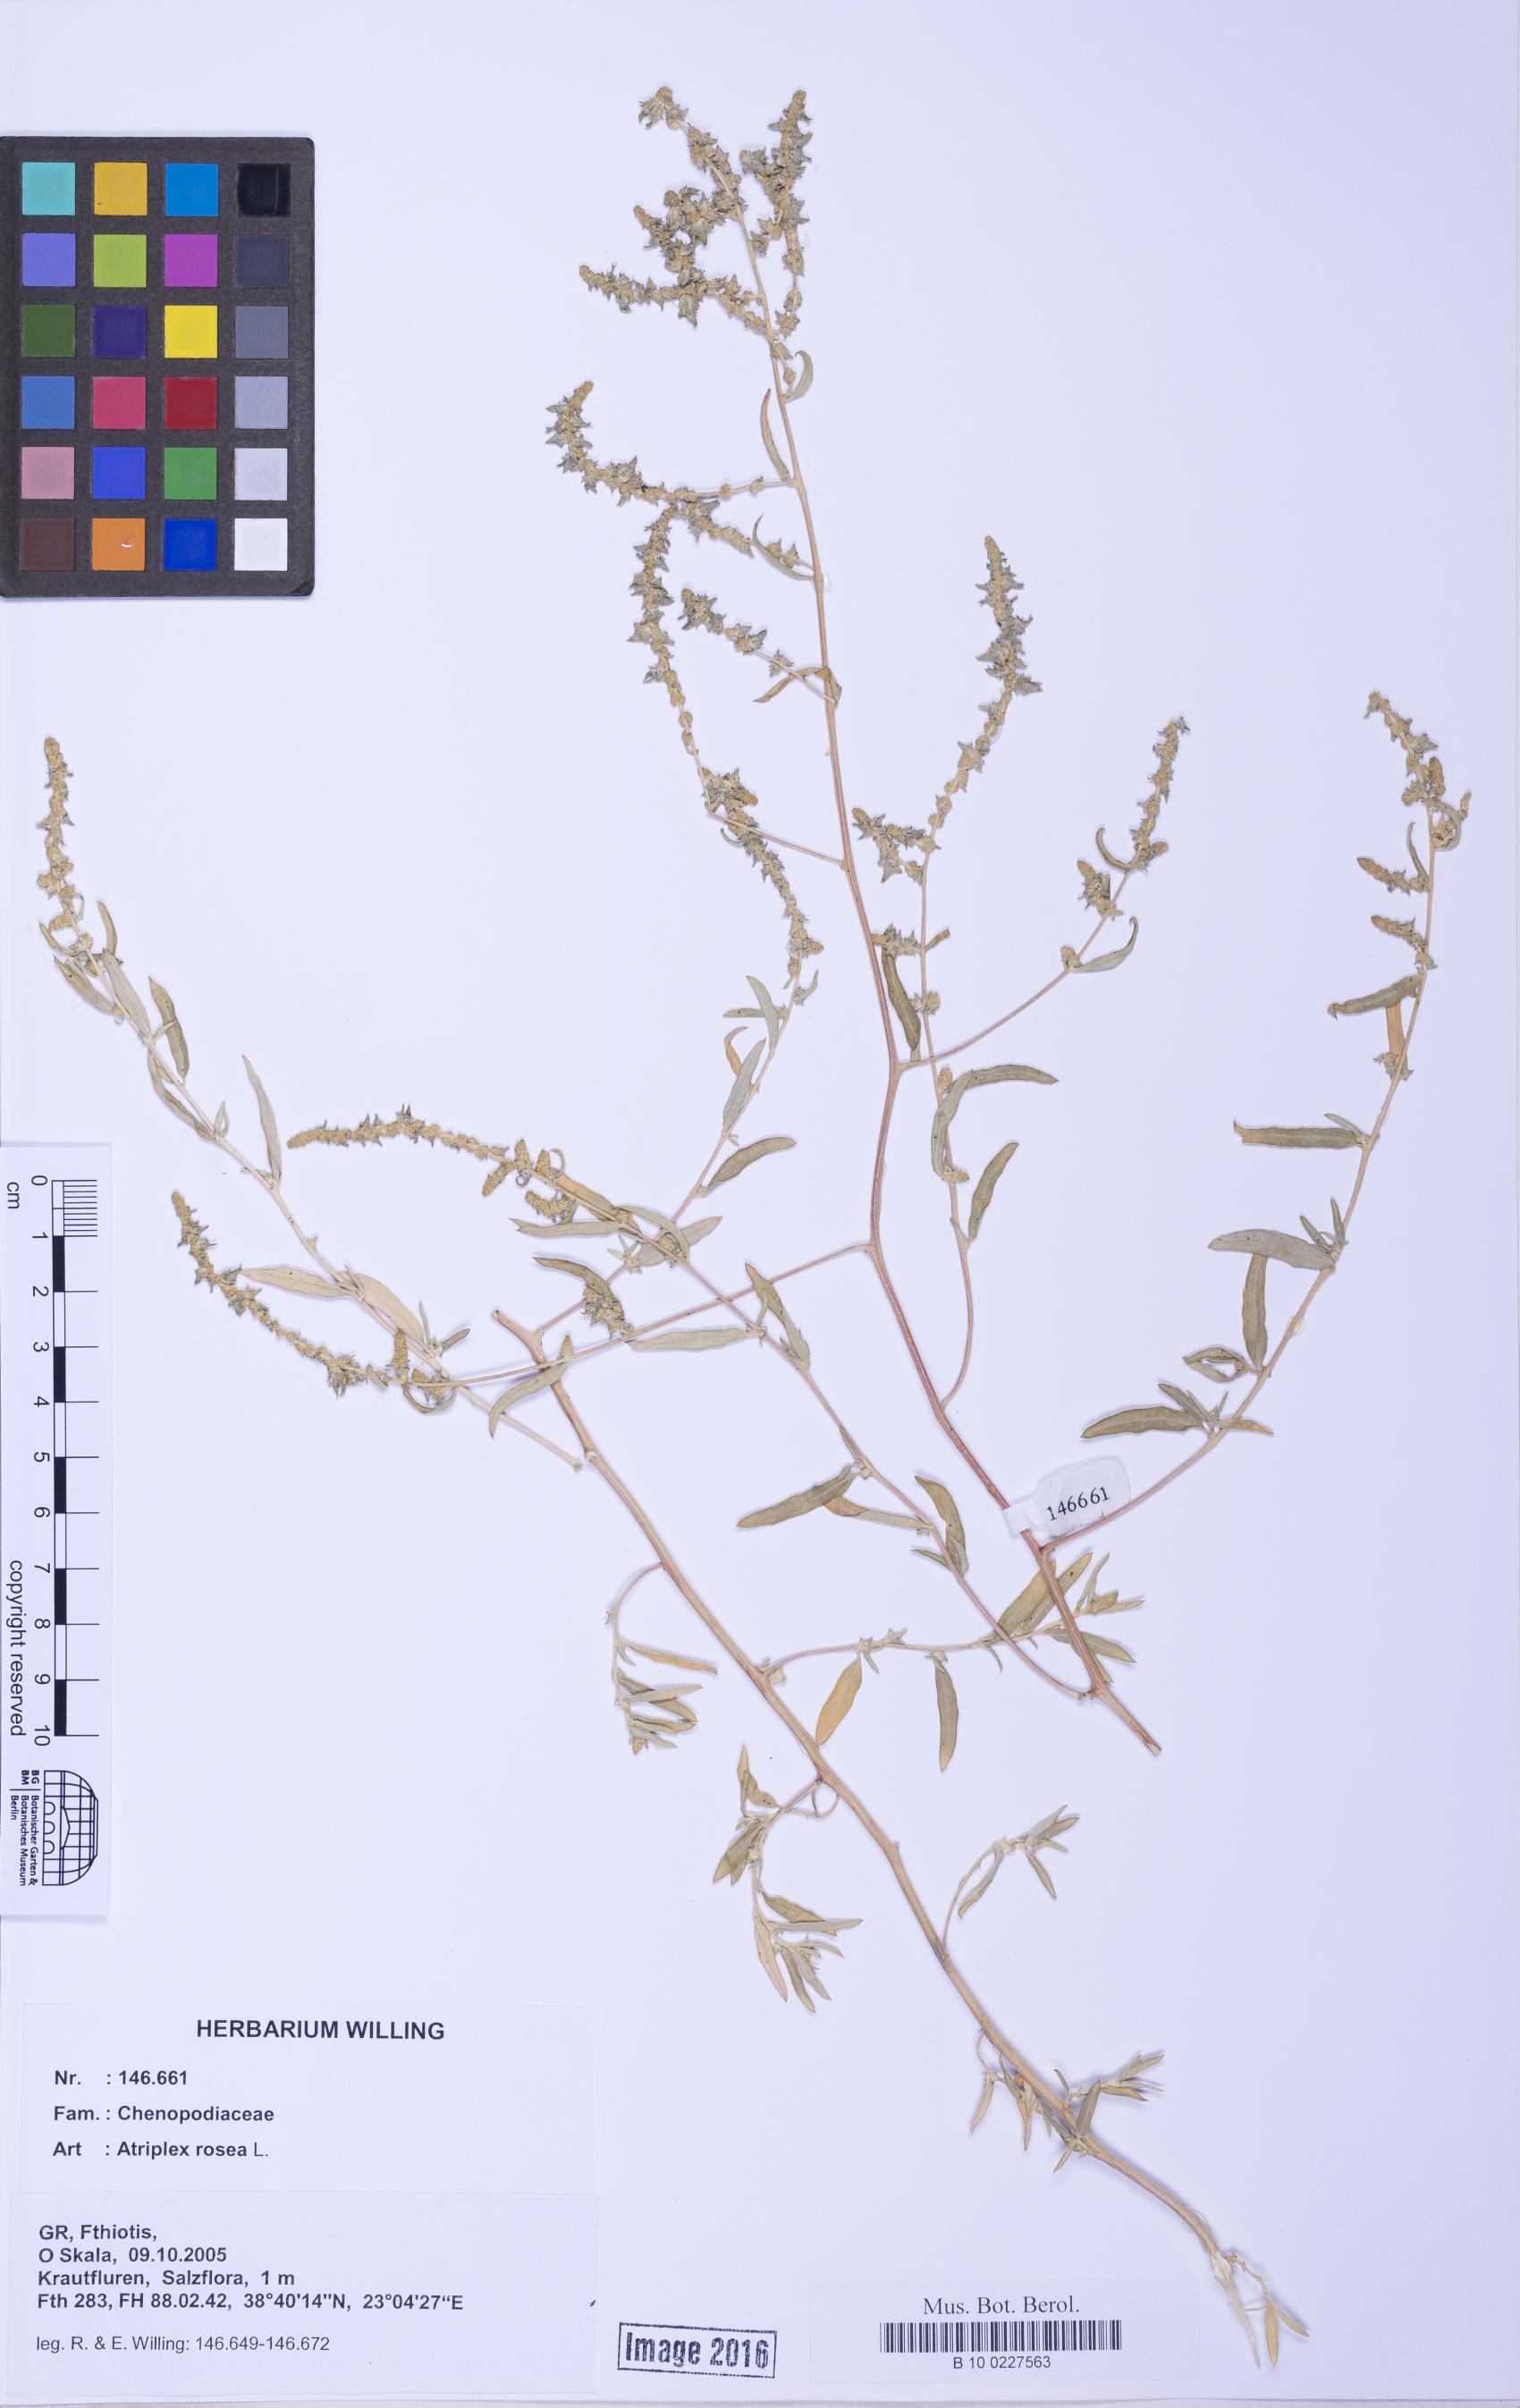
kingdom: Plantae
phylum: Tracheophyta
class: Magnoliopsida
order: Caryophyllales
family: Amaranthaceae
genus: Atriplex
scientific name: Atriplex tatarica
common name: Tatarian orache
